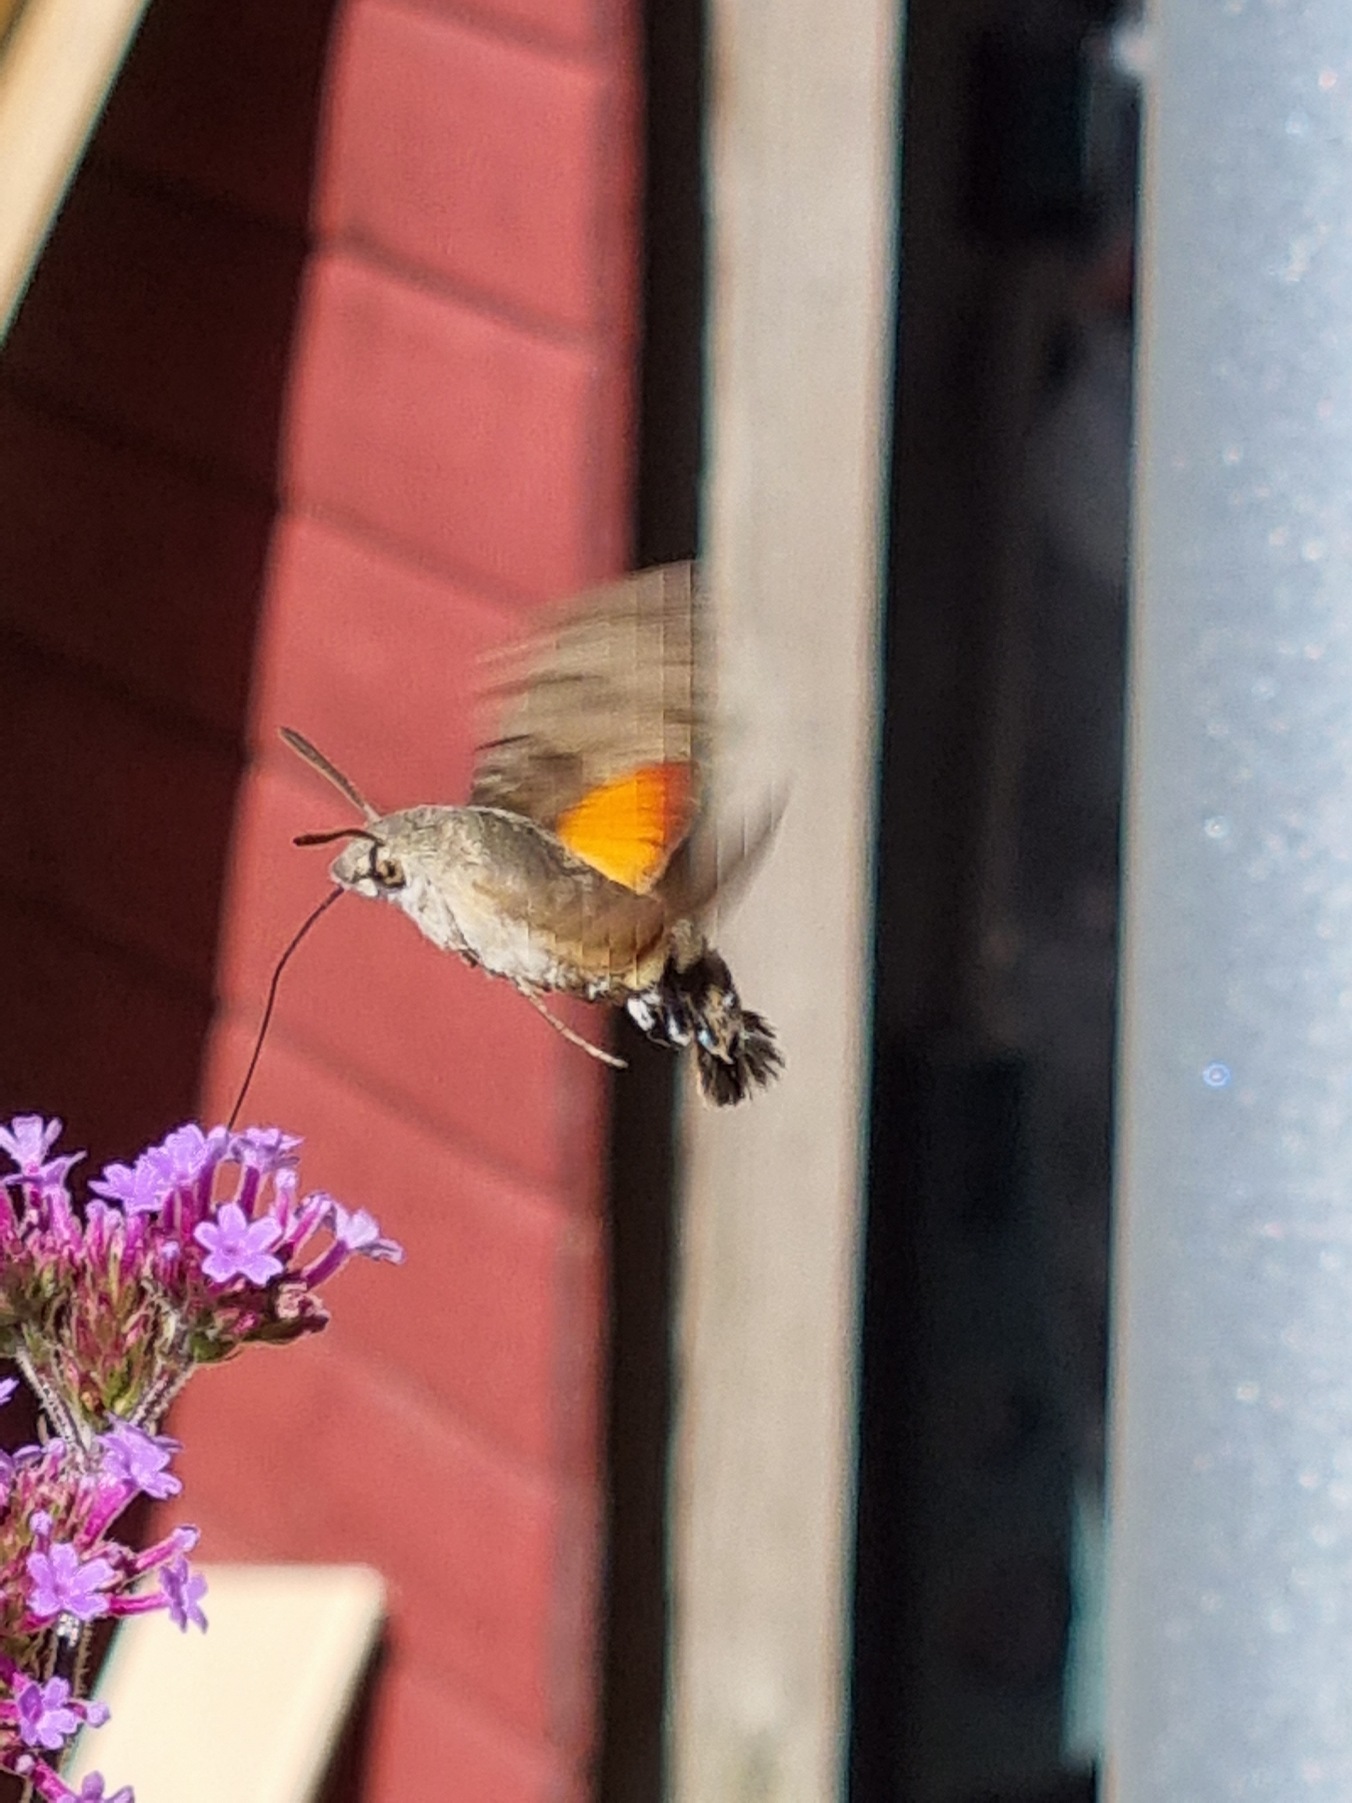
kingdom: Animalia
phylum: Arthropoda
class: Insecta
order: Lepidoptera
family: Sphingidae
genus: Macroglossum
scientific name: Macroglossum stellatarum
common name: Duehale
